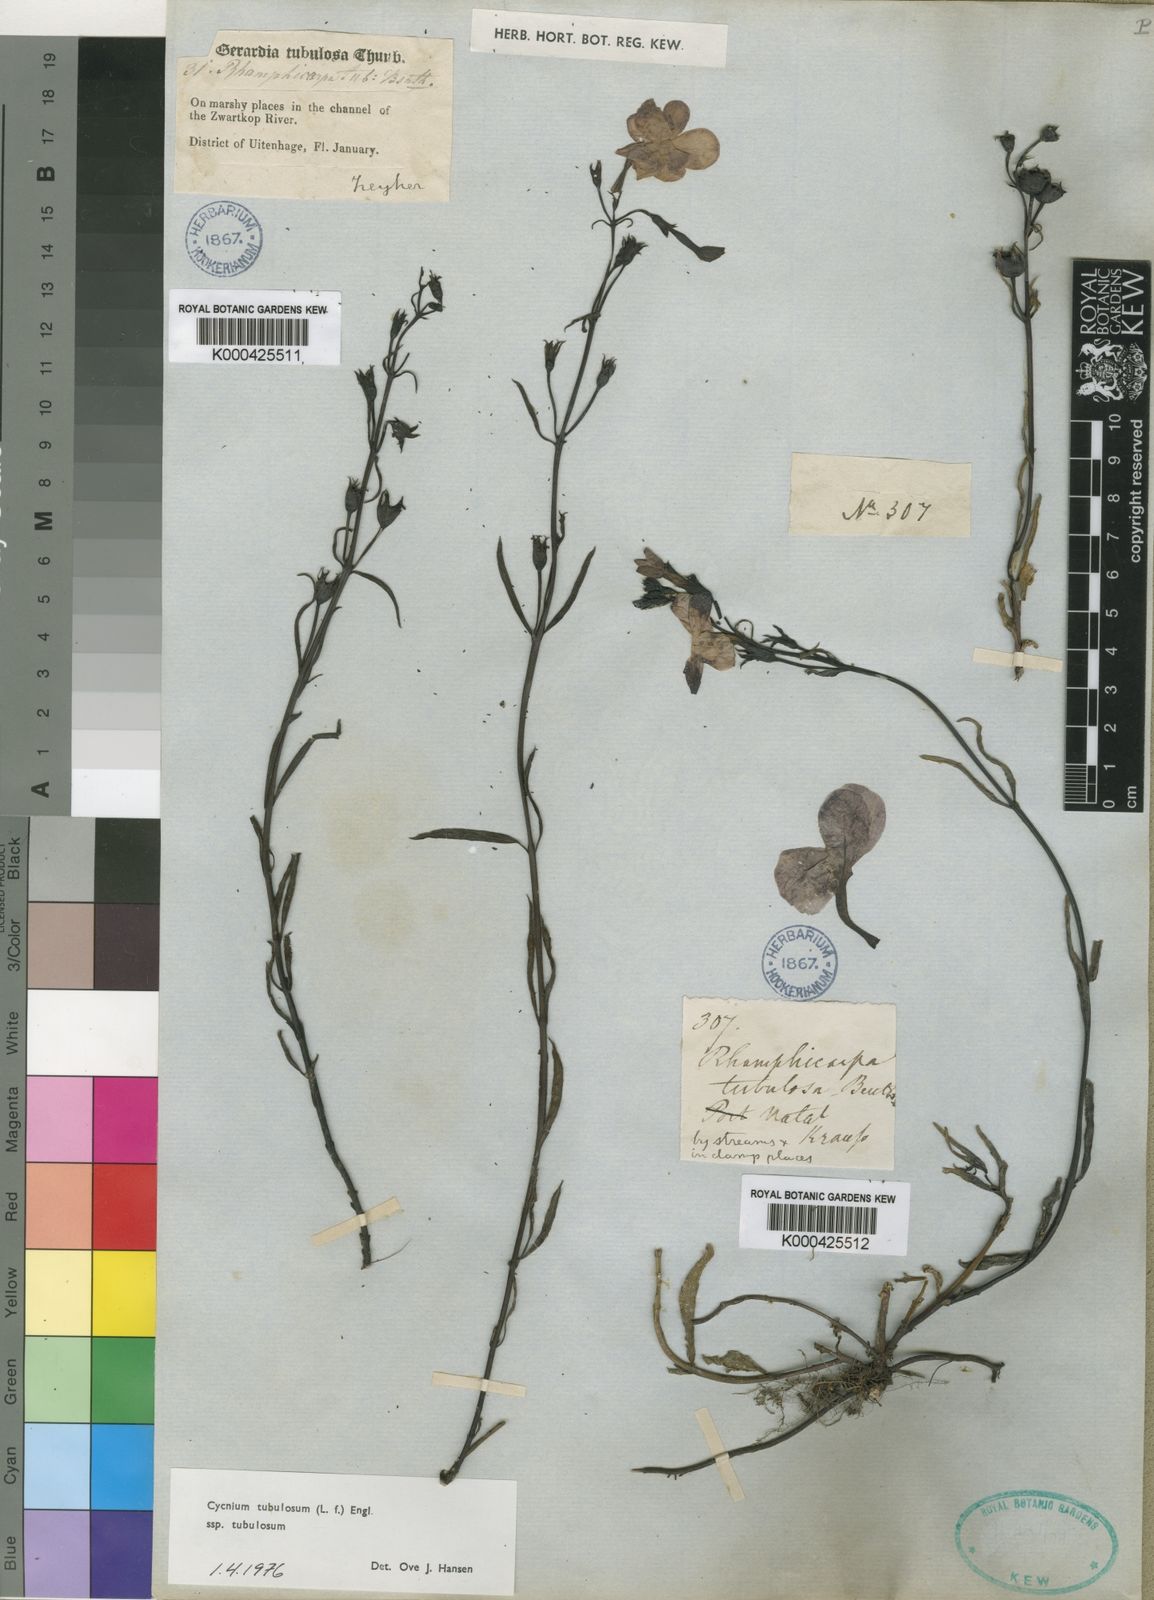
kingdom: Plantae
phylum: Tracheophyta
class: Magnoliopsida
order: Lamiales
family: Orobanchaceae
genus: Cycnium
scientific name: Cycnium tubulosum
